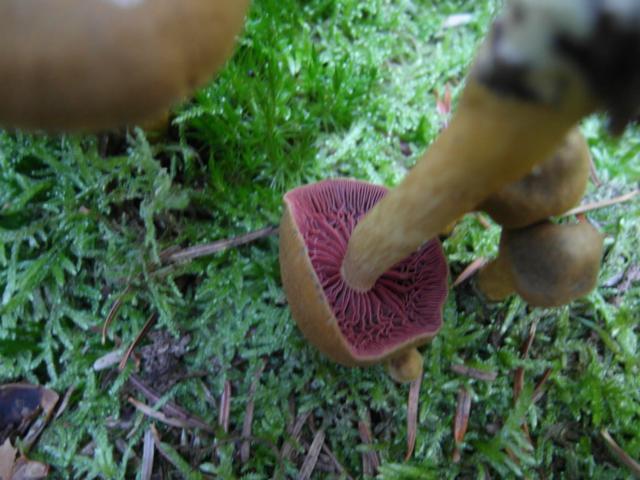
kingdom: Fungi
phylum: Basidiomycota
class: Agaricomycetes
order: Agaricales
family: Cortinariaceae
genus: Cortinarius
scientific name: Cortinarius
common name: cinnoberbladet slørhat
